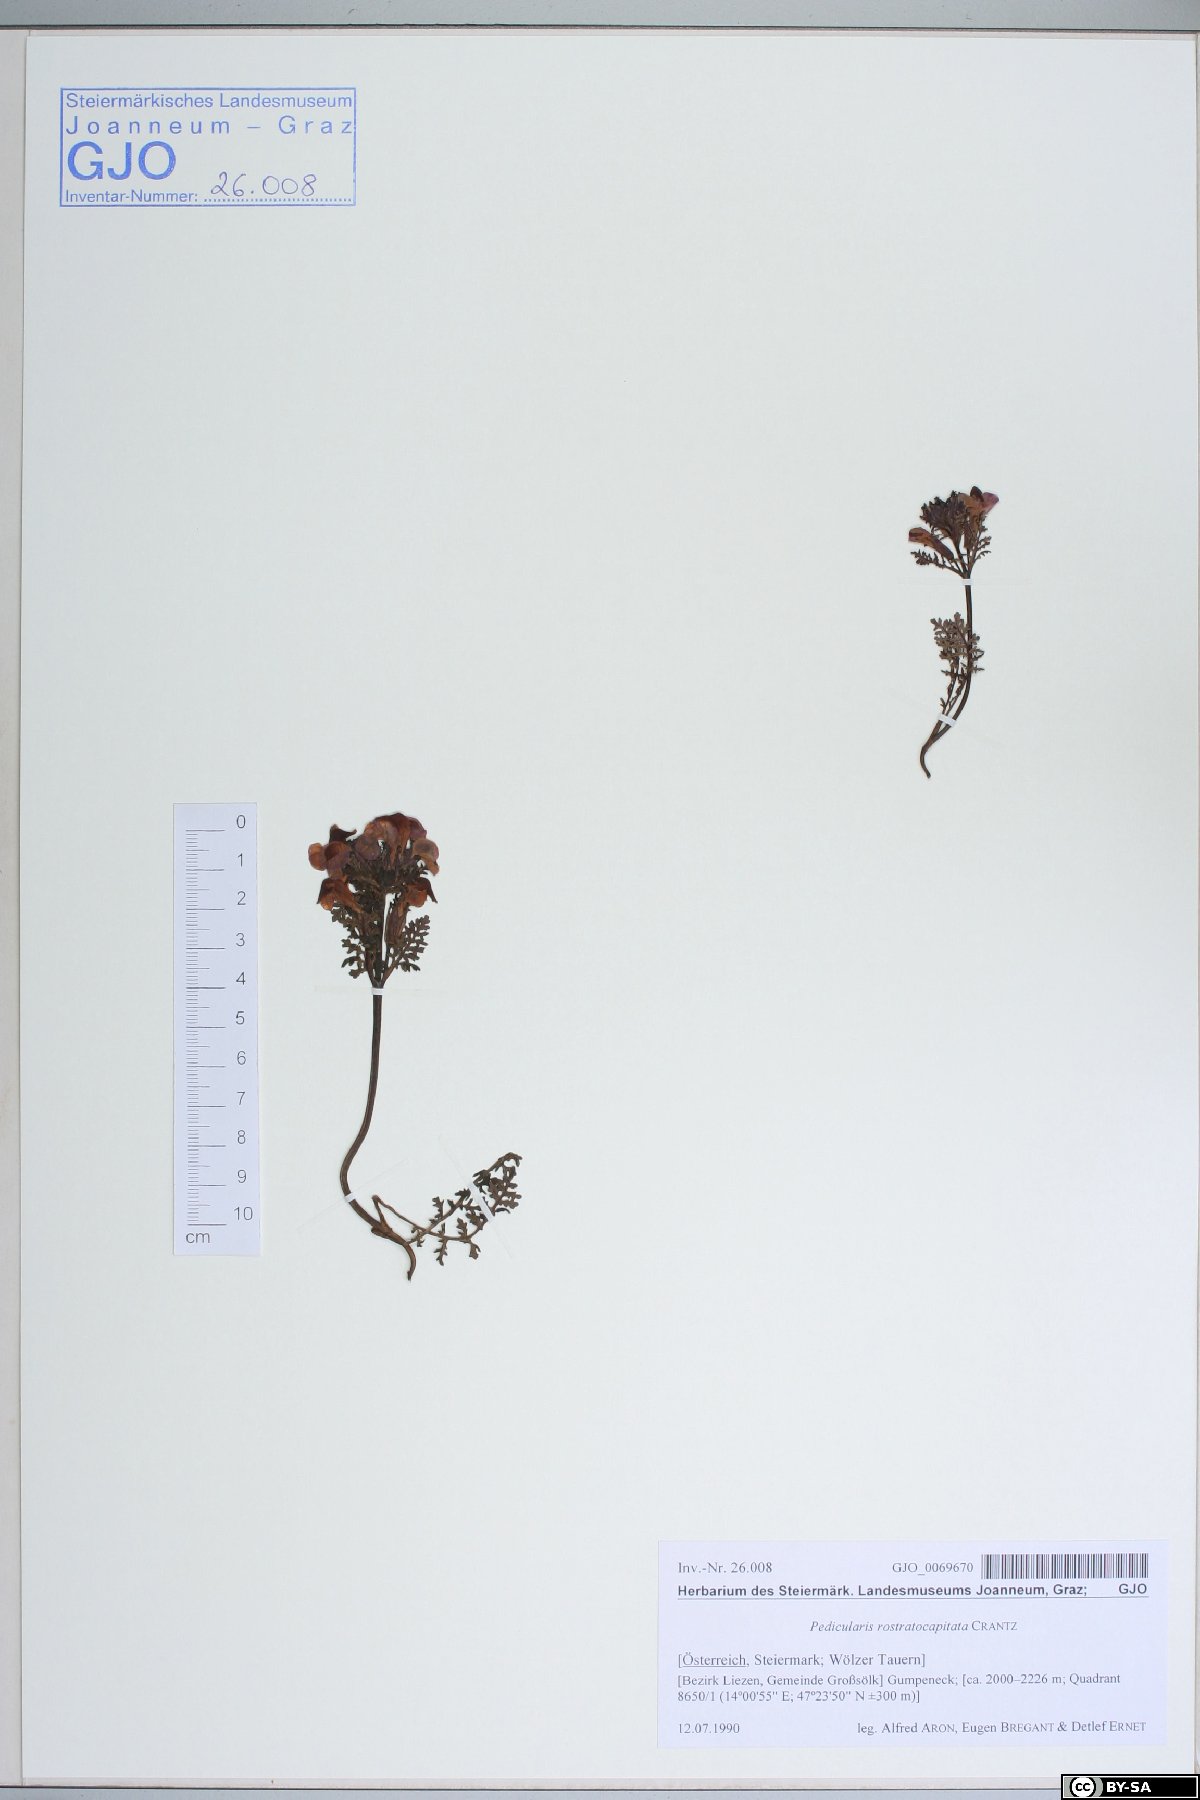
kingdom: Plantae
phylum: Tracheophyta
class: Magnoliopsida
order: Lamiales
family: Orobanchaceae
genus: Pedicularis
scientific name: Pedicularis rostratocapitata
